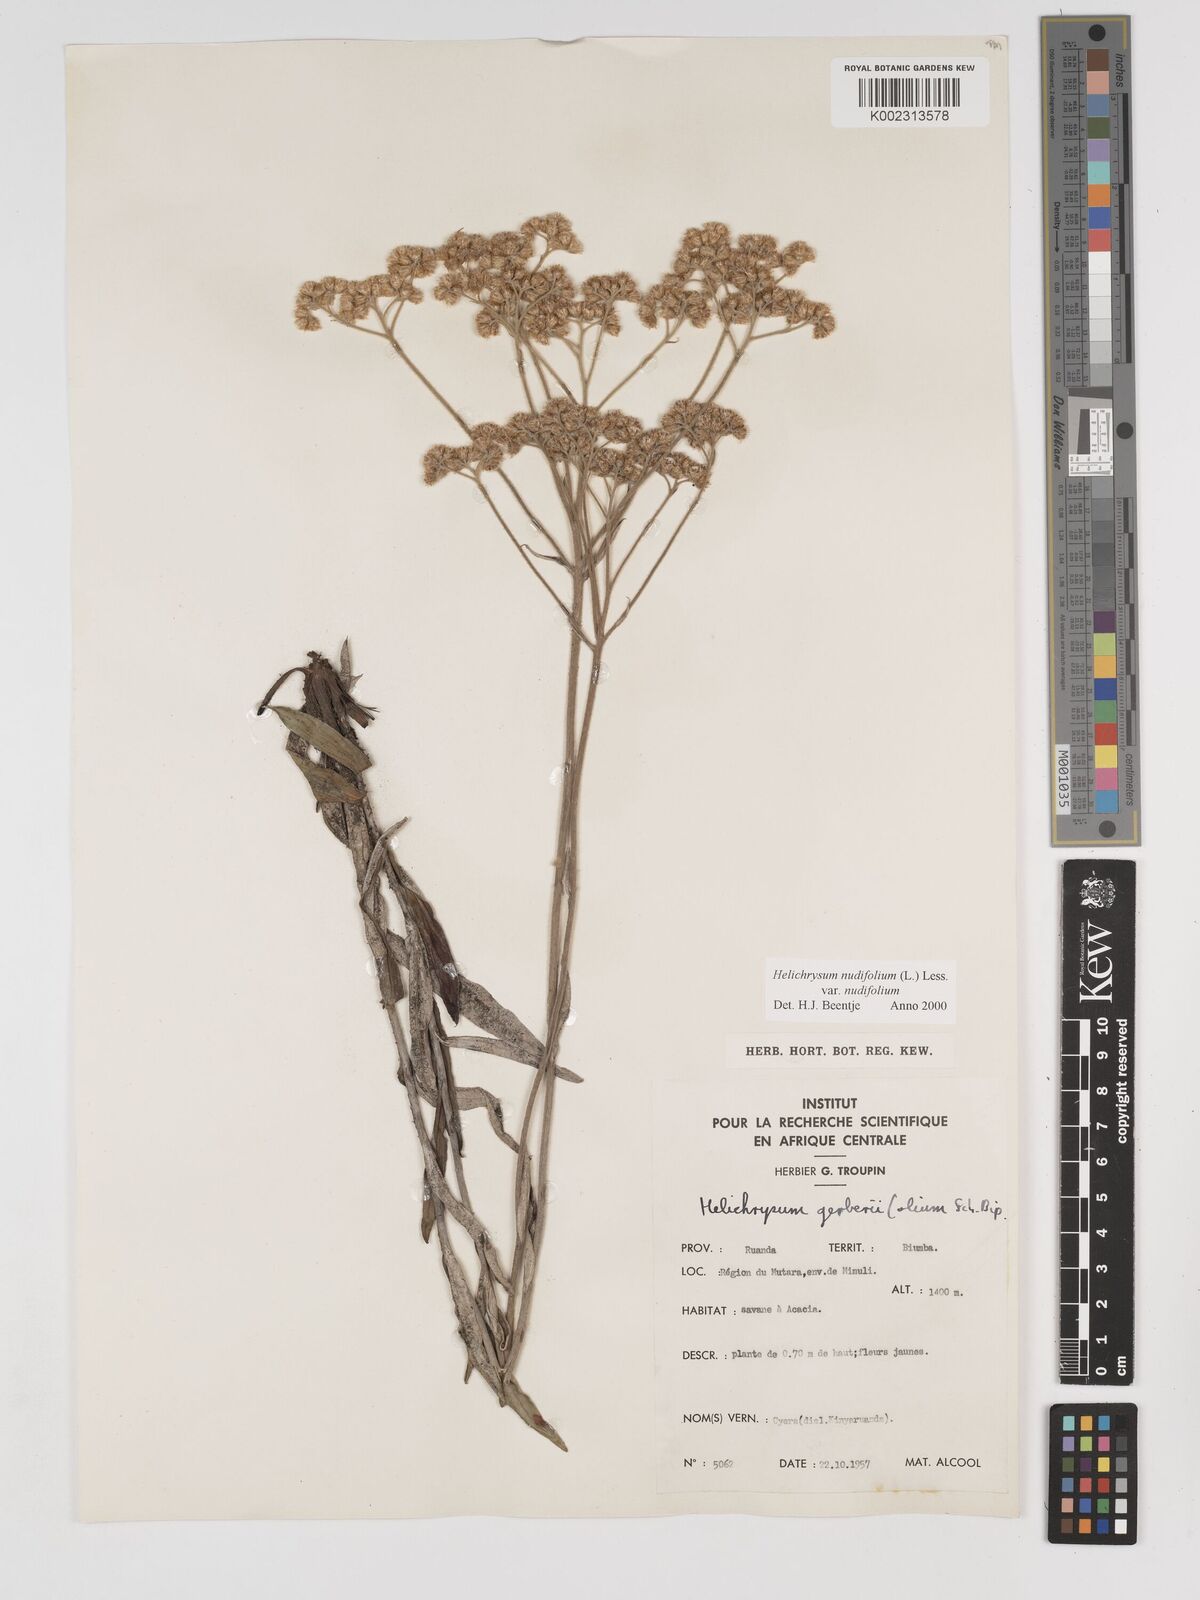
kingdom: Plantae
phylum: Tracheophyta
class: Magnoliopsida
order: Asterales
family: Asteraceae
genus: Helichrysum
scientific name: Helichrysum nudifolium
